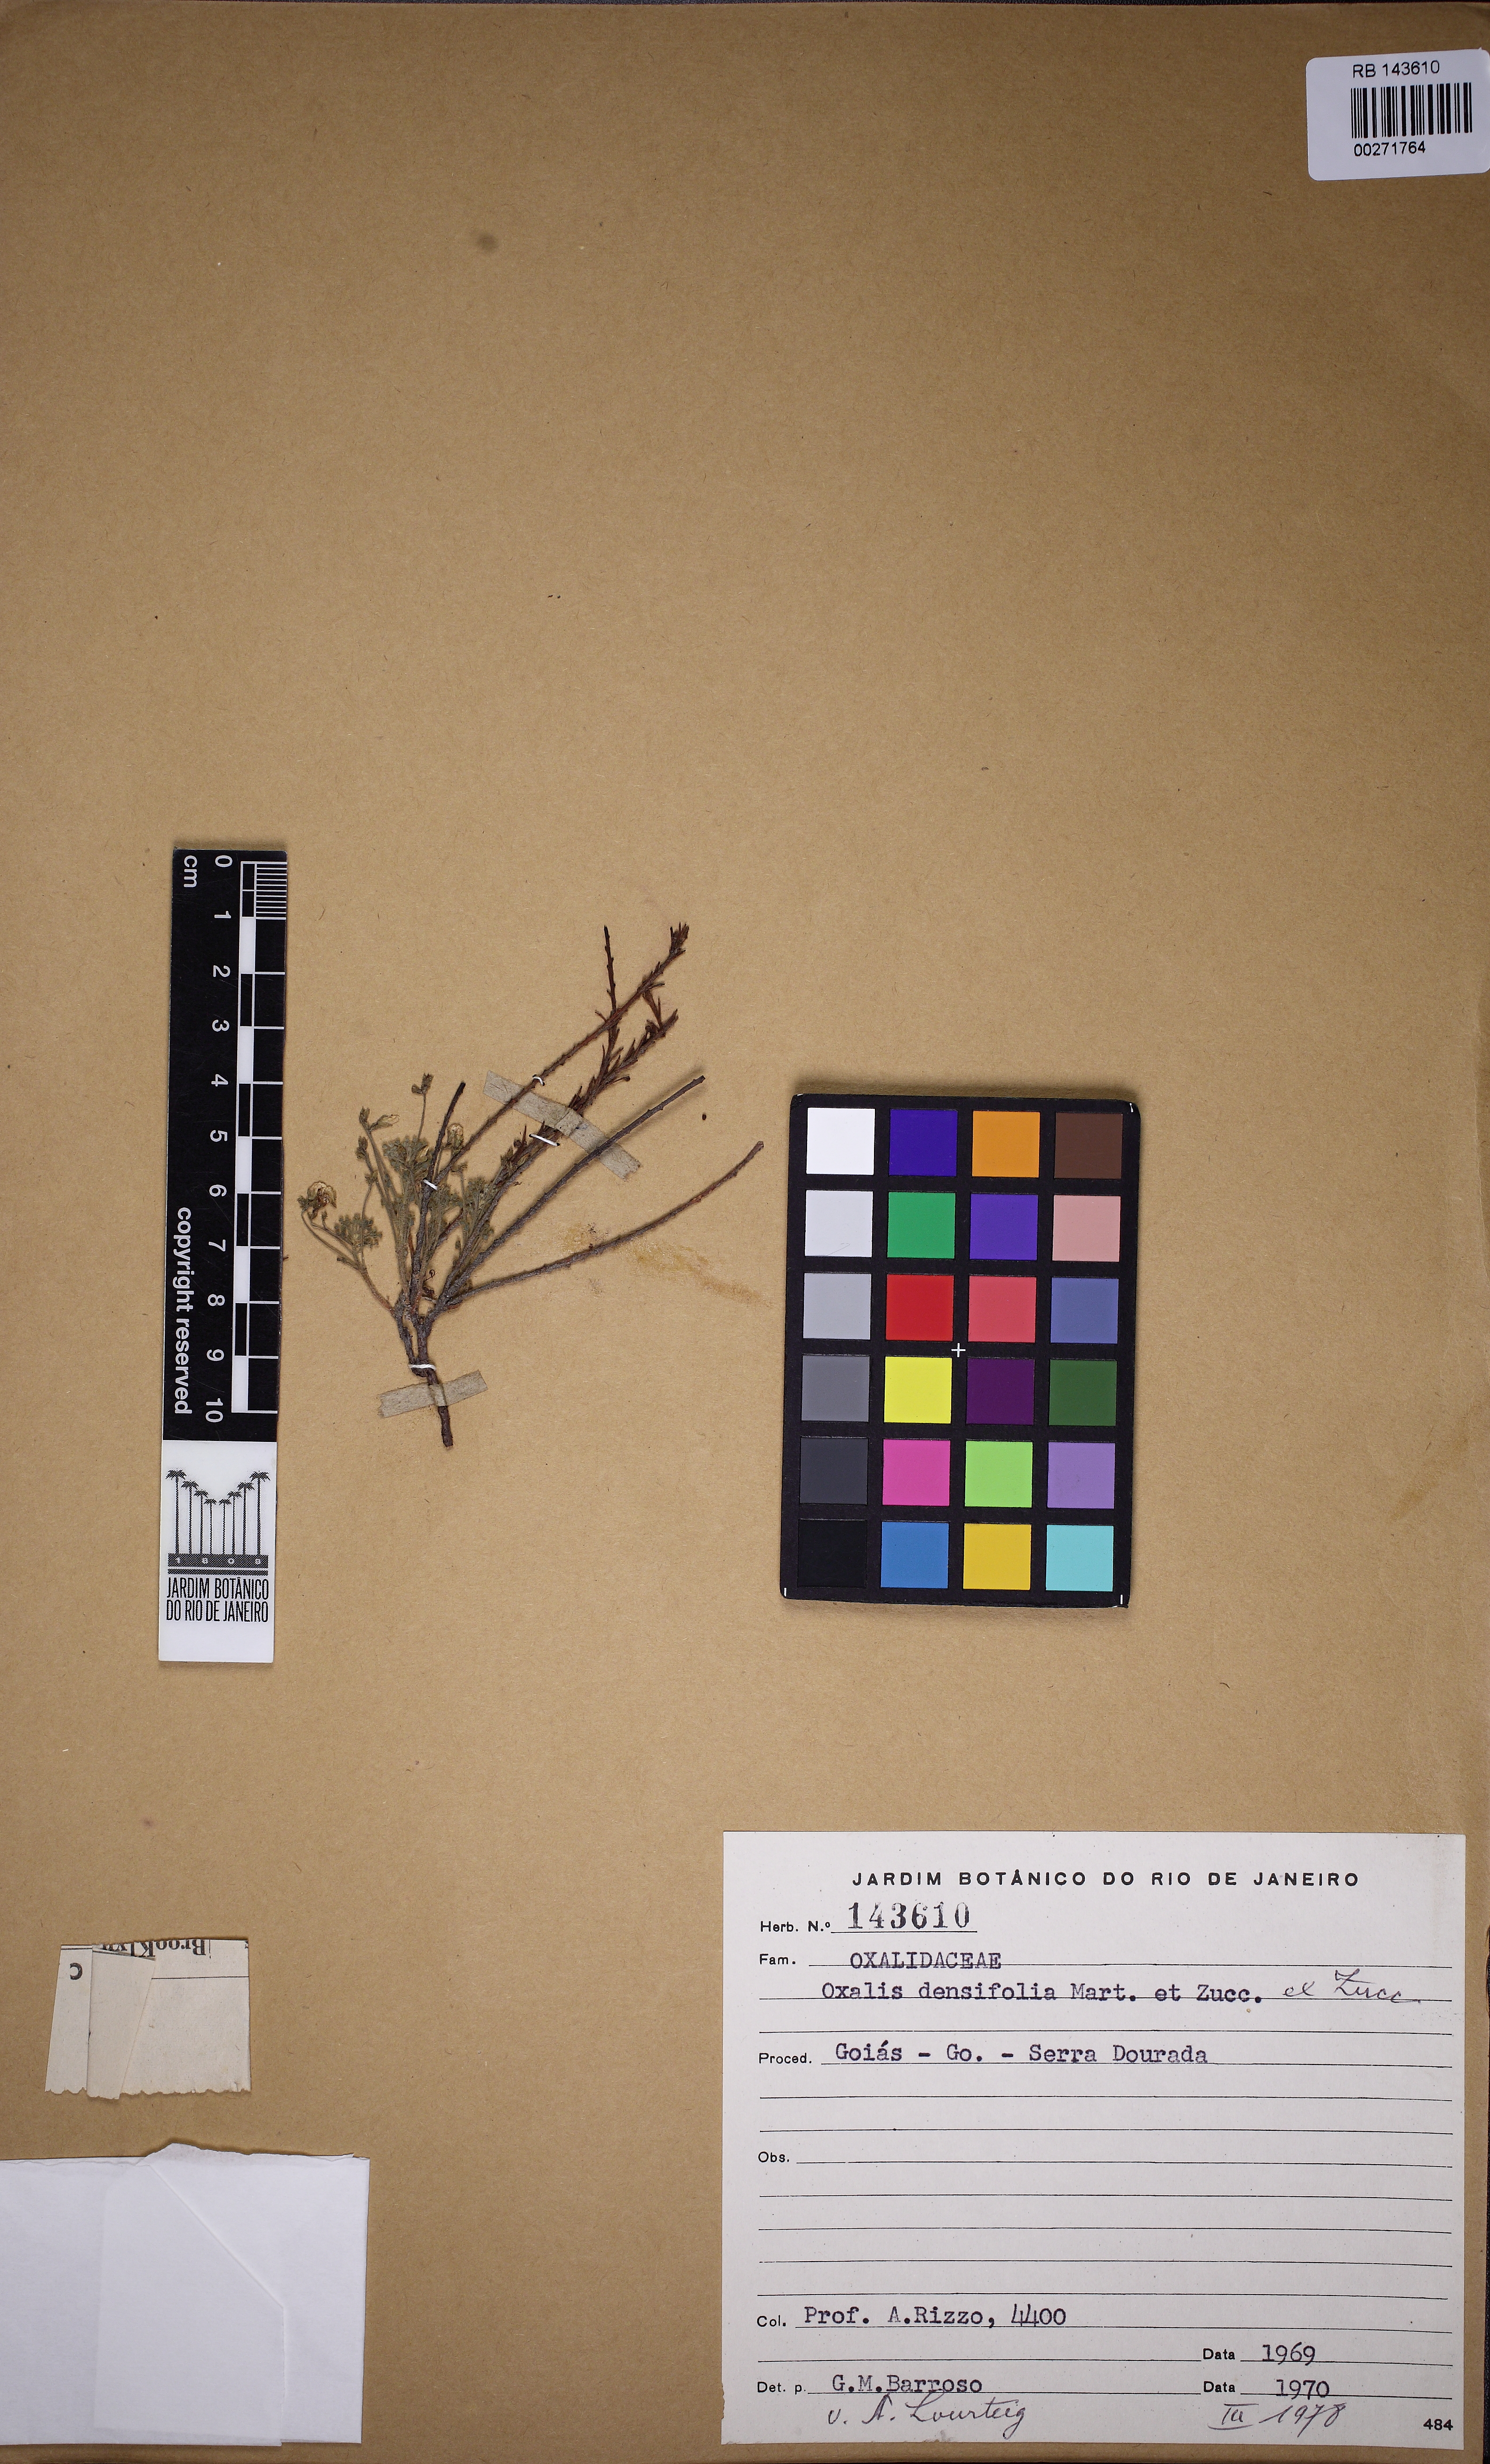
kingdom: Plantae
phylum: Tracheophyta
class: Magnoliopsida
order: Oxalidales
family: Oxalidaceae
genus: Oxalis
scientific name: Oxalis densifolia
